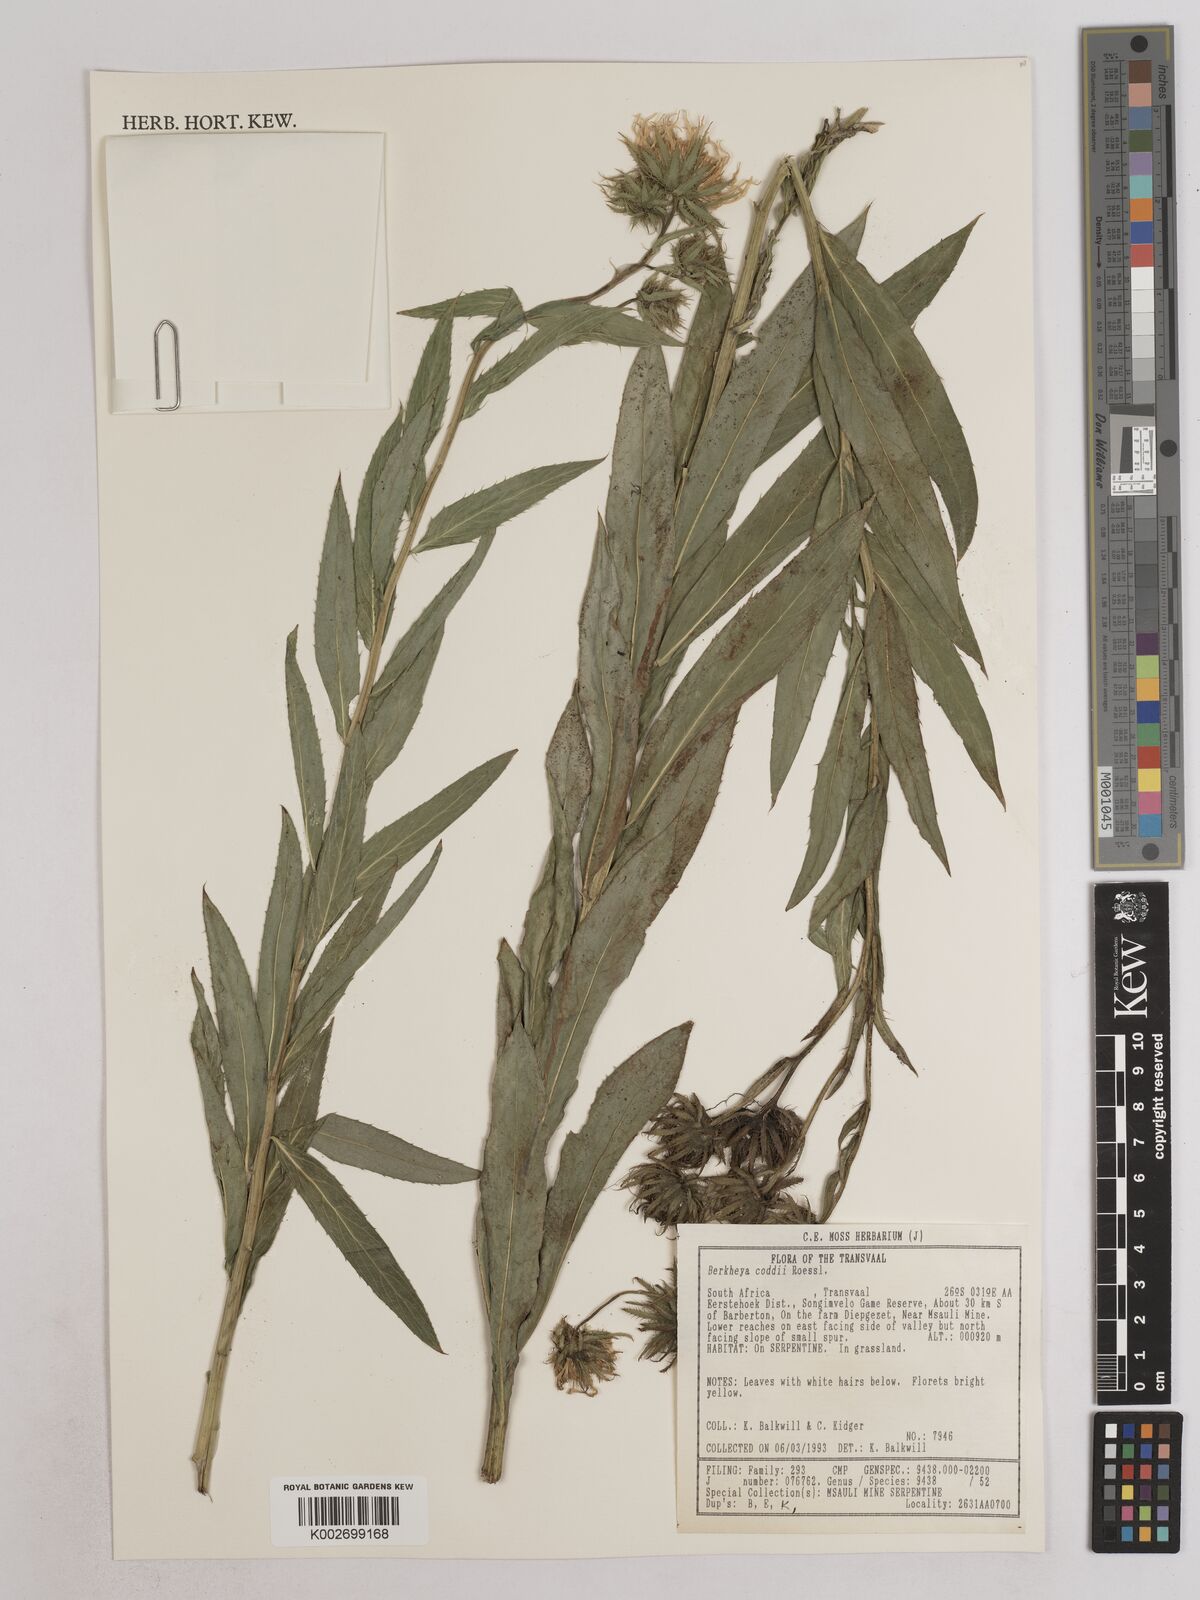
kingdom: Plantae
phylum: Tracheophyta
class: Magnoliopsida
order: Asterales
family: Asteraceae
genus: Berkheya
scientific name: Berkheya coddii
